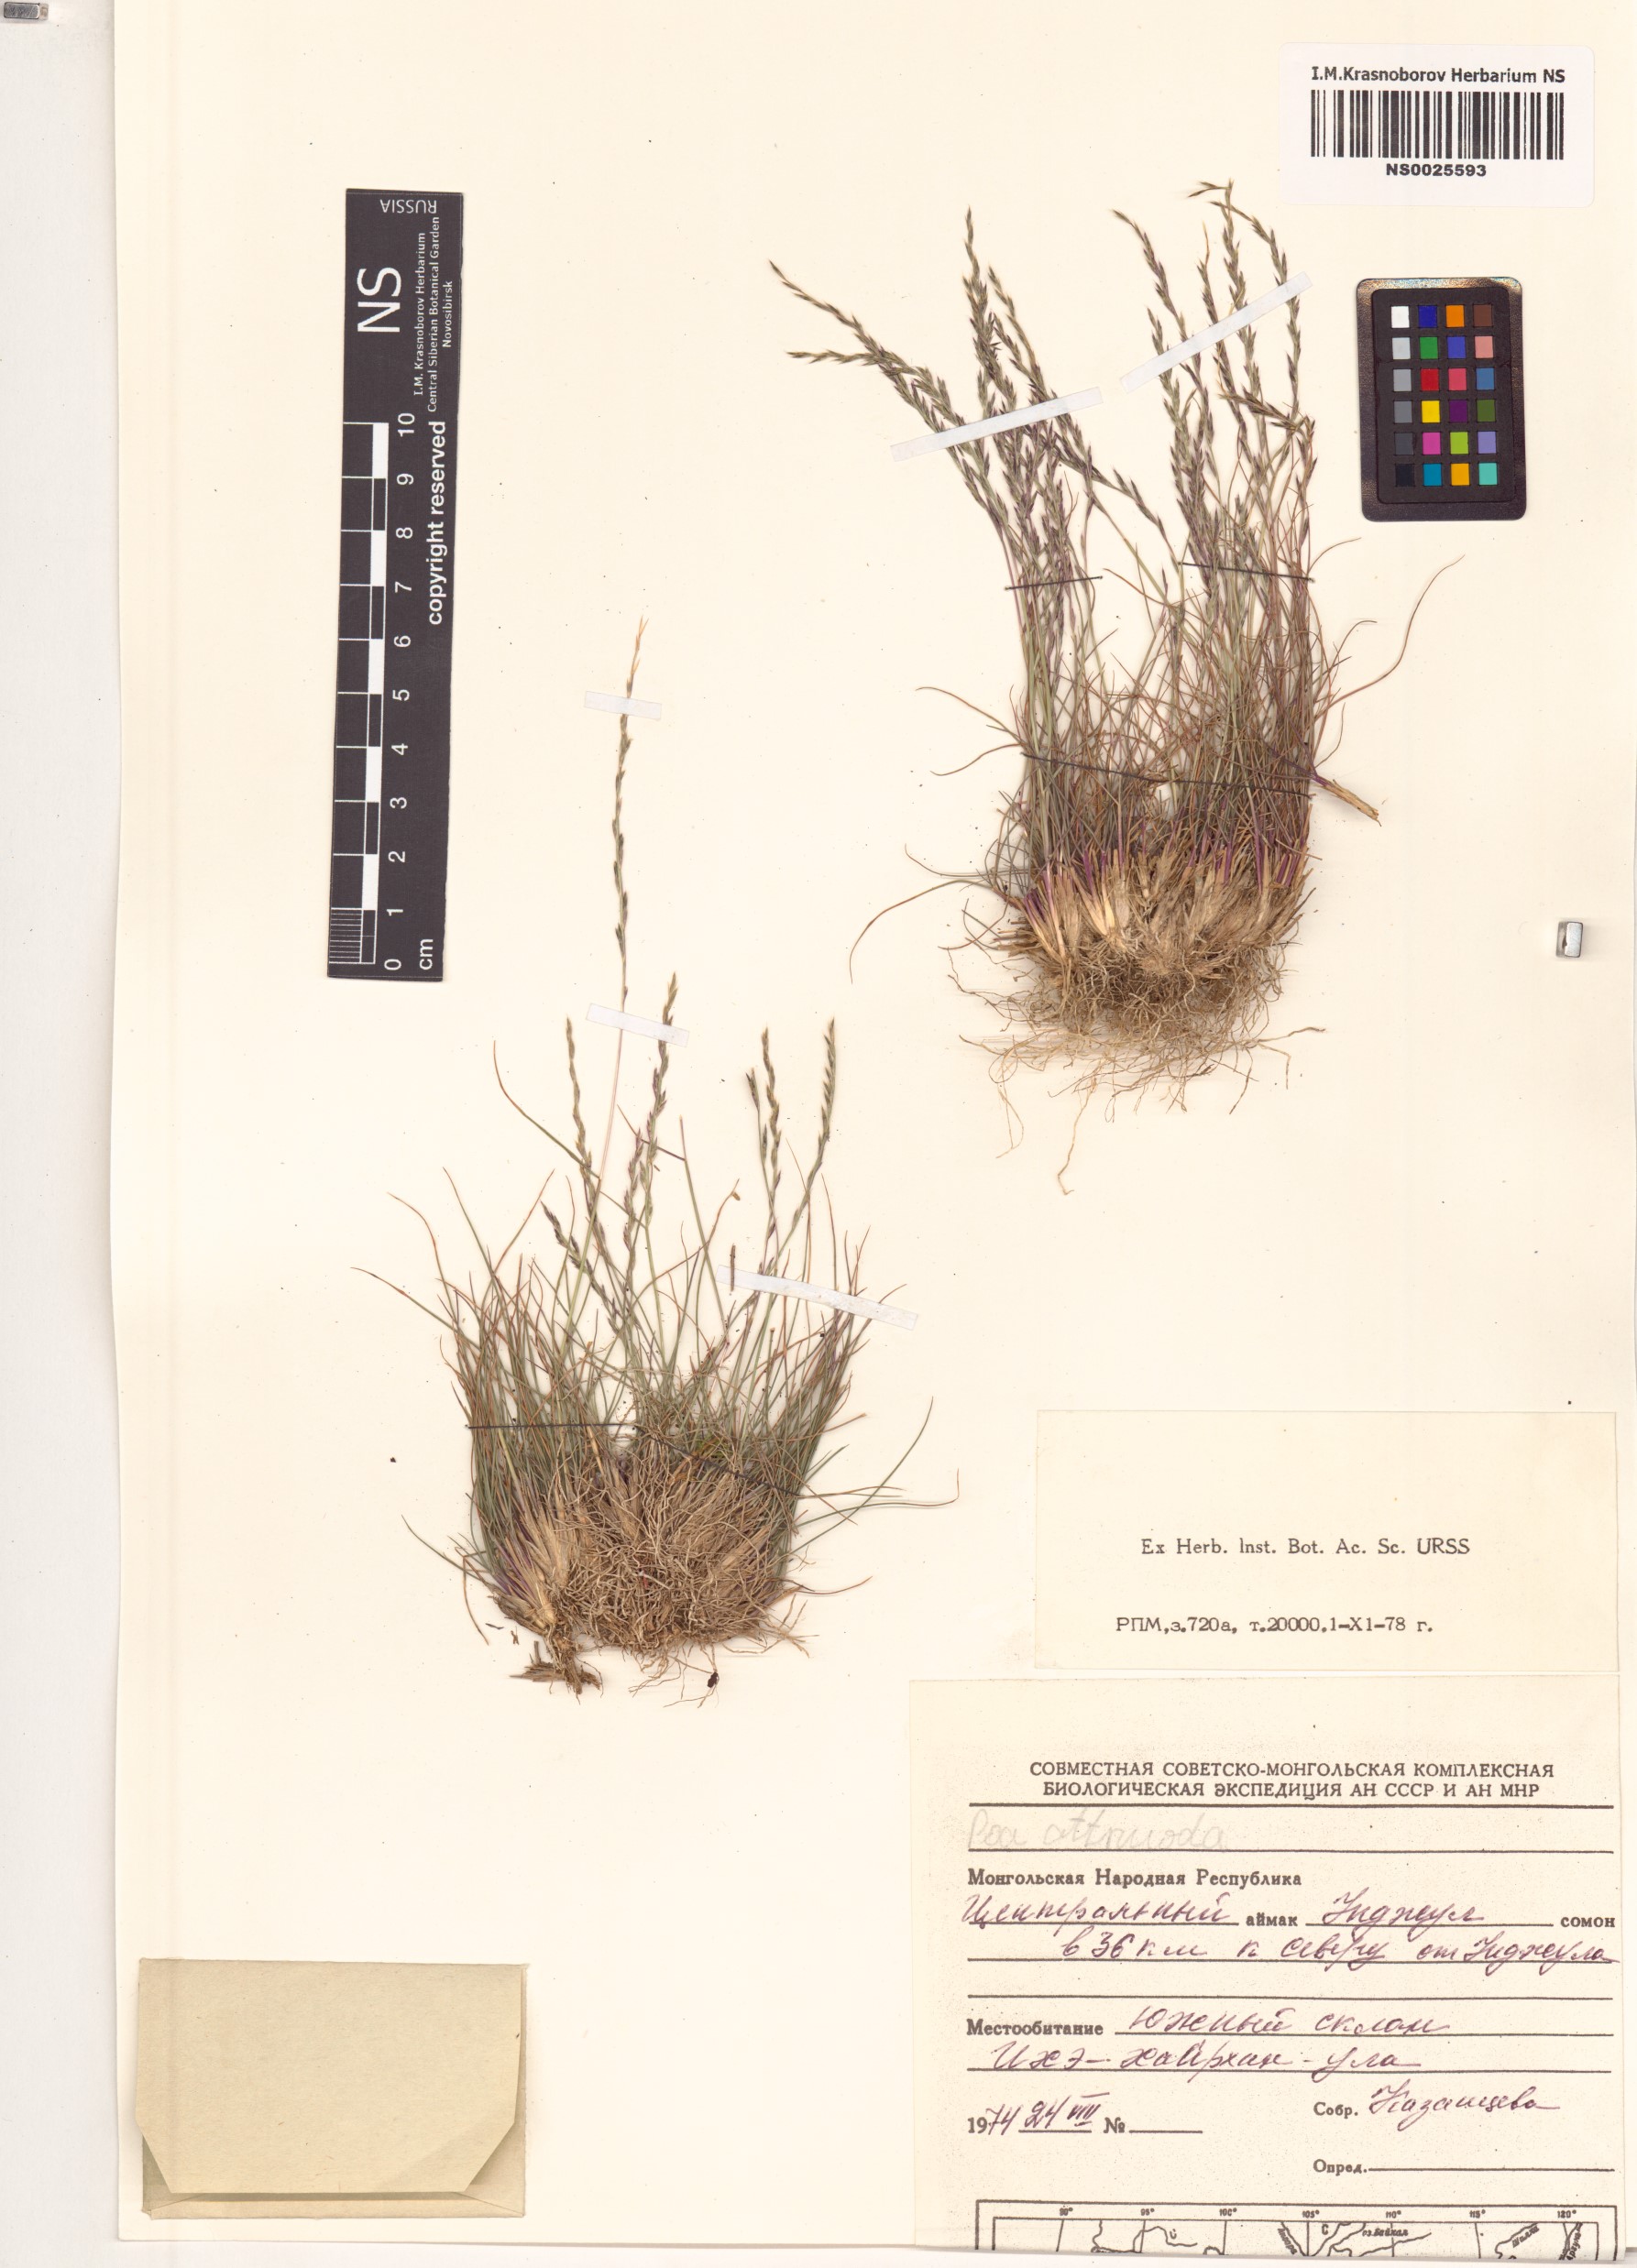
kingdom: Plantae
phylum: Tracheophyta
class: Liliopsida
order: Poales
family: Poaceae
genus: Poa
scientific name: Poa attenuata
